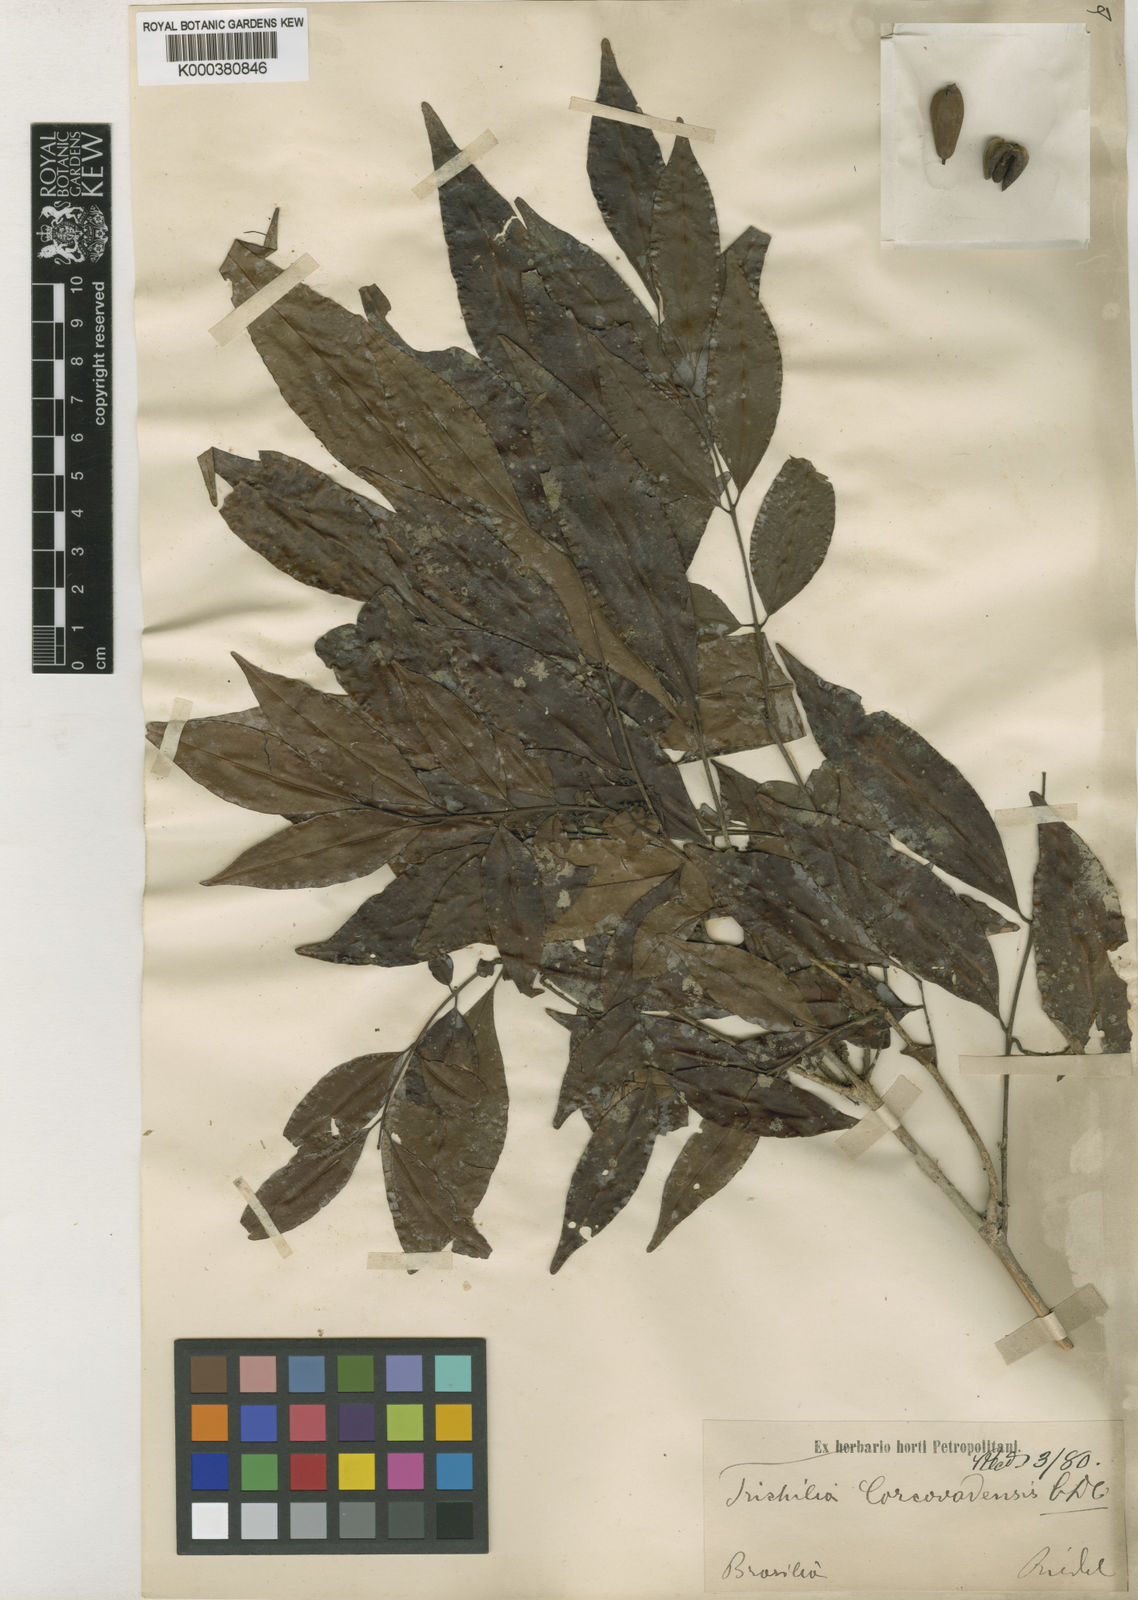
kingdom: Plantae
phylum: Tracheophyta
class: Magnoliopsida
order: Sapindales
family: Meliaceae
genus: Trichilia
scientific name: Trichilia pseudostipularis
